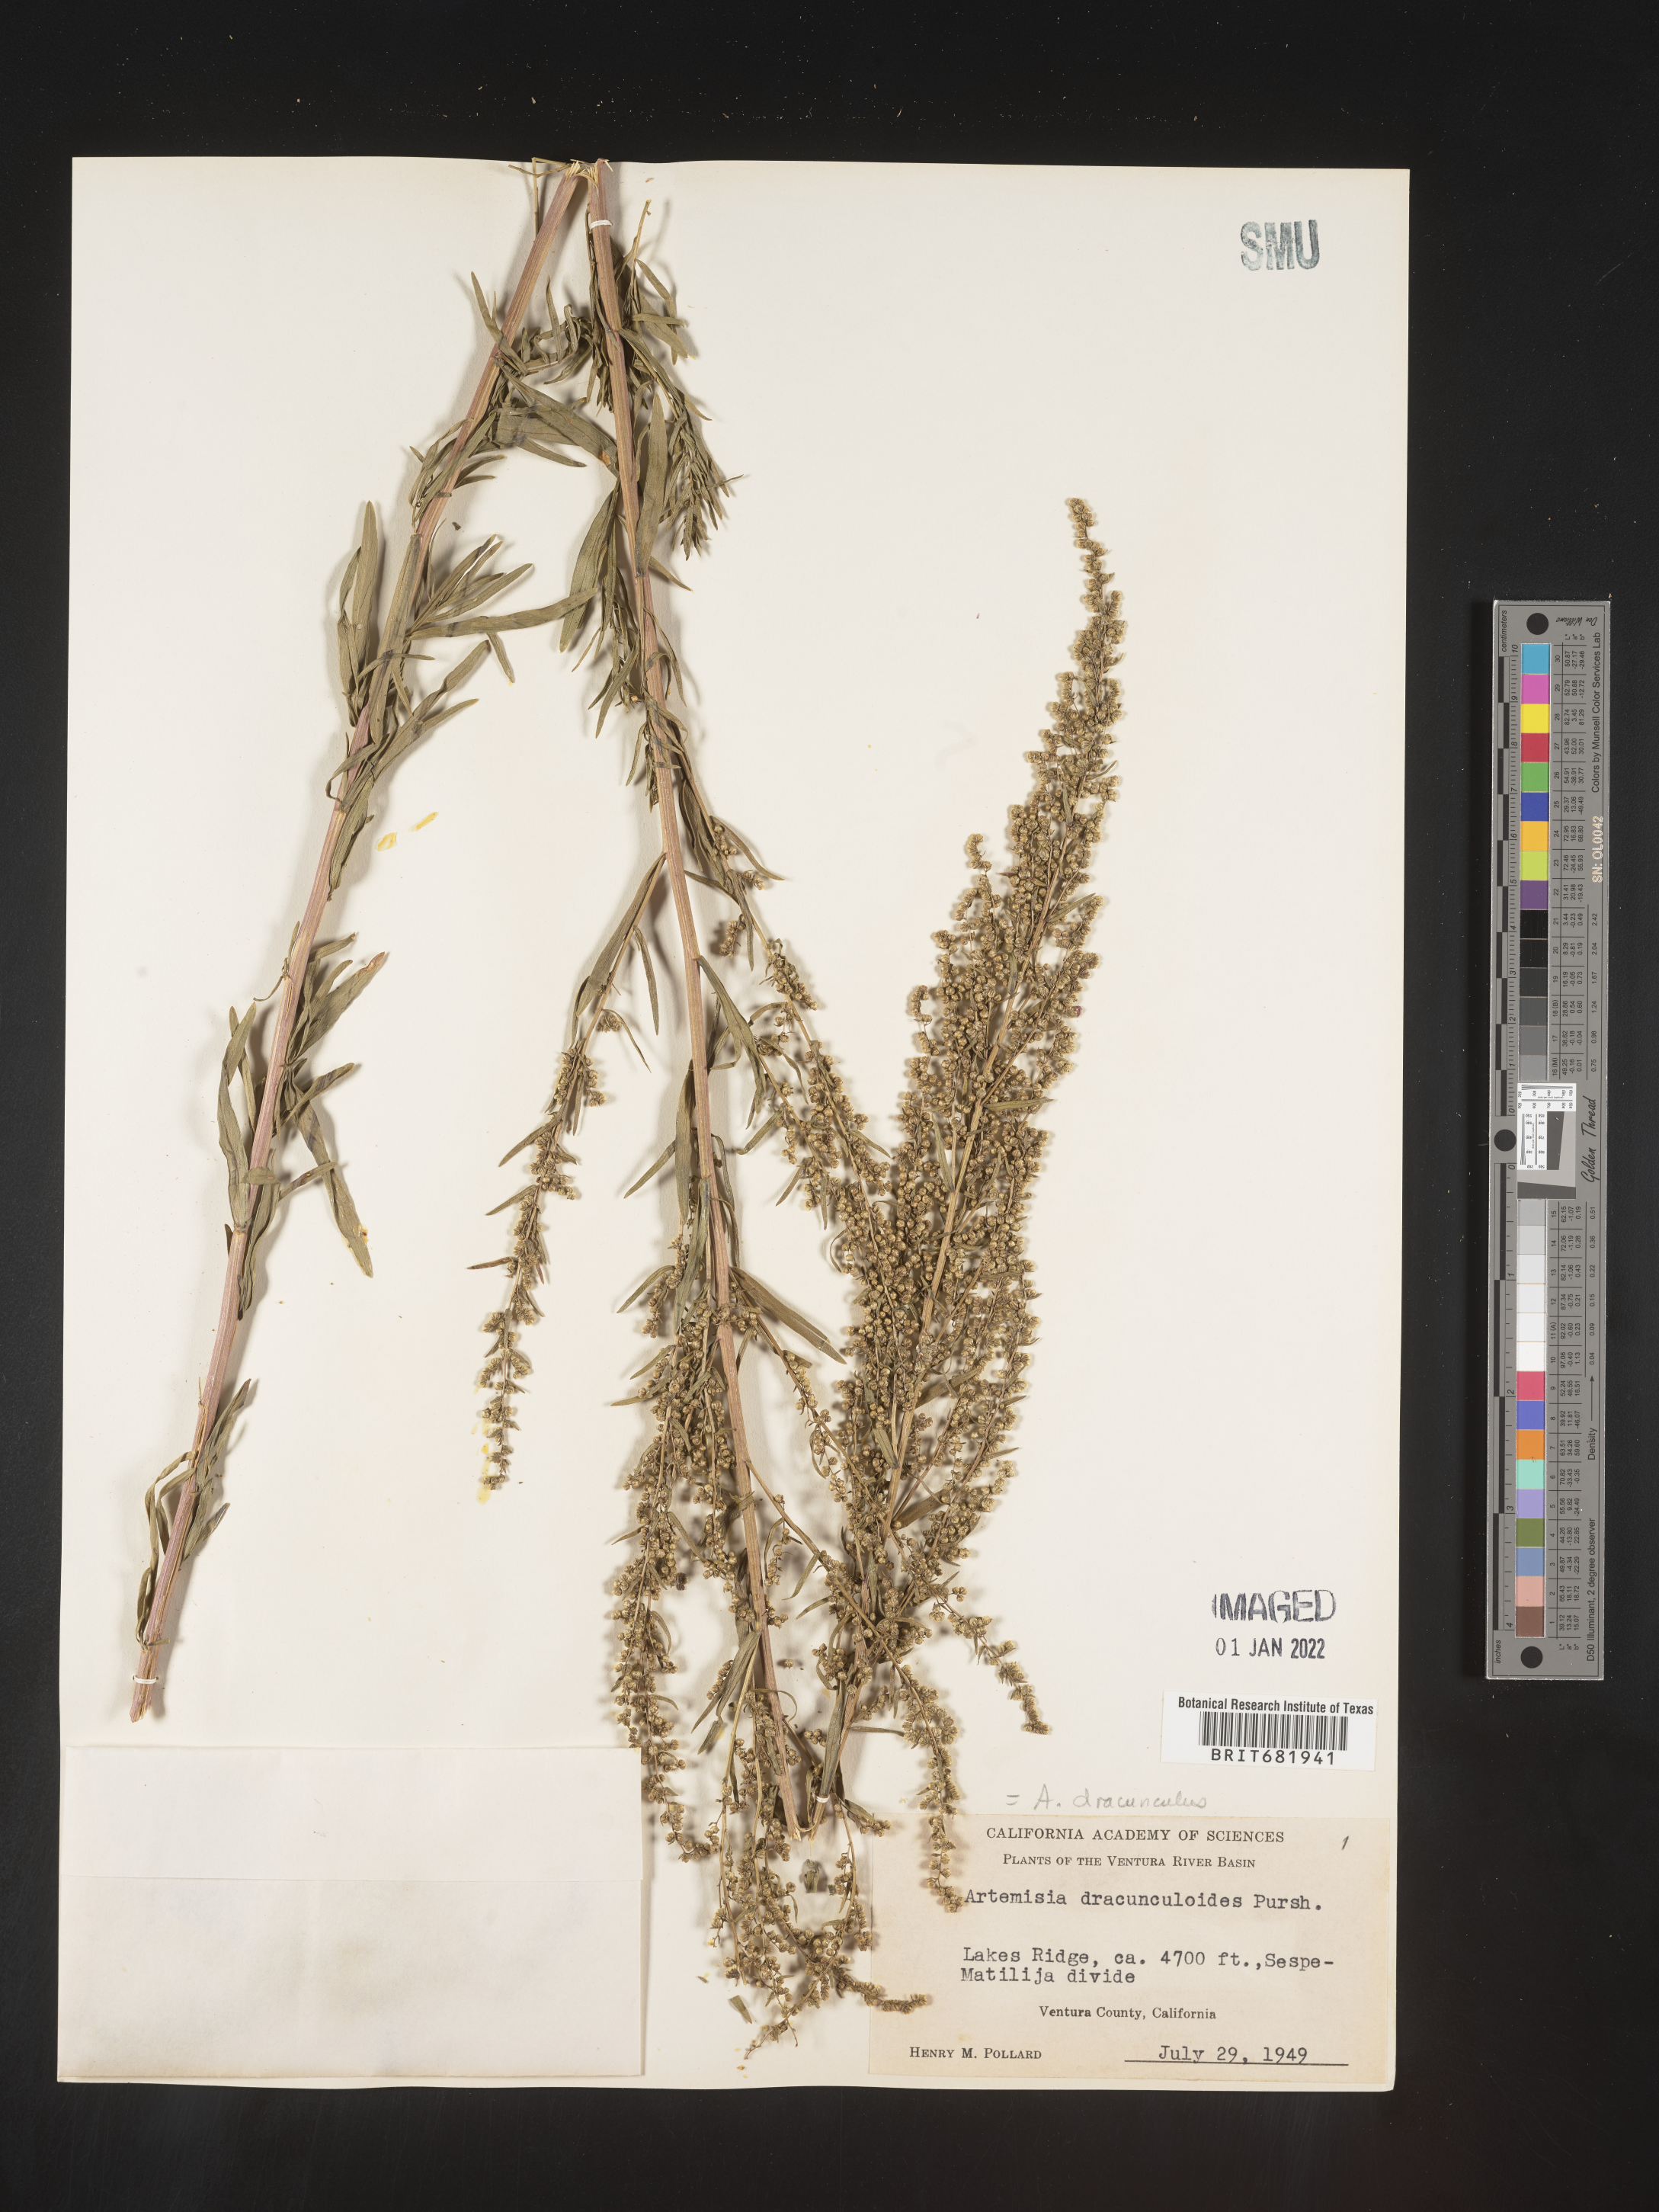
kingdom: Plantae
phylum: Tracheophyta
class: Magnoliopsida
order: Asterales
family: Asteraceae
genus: Artemisia
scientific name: Artemisia dracunculus
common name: Tarragon
